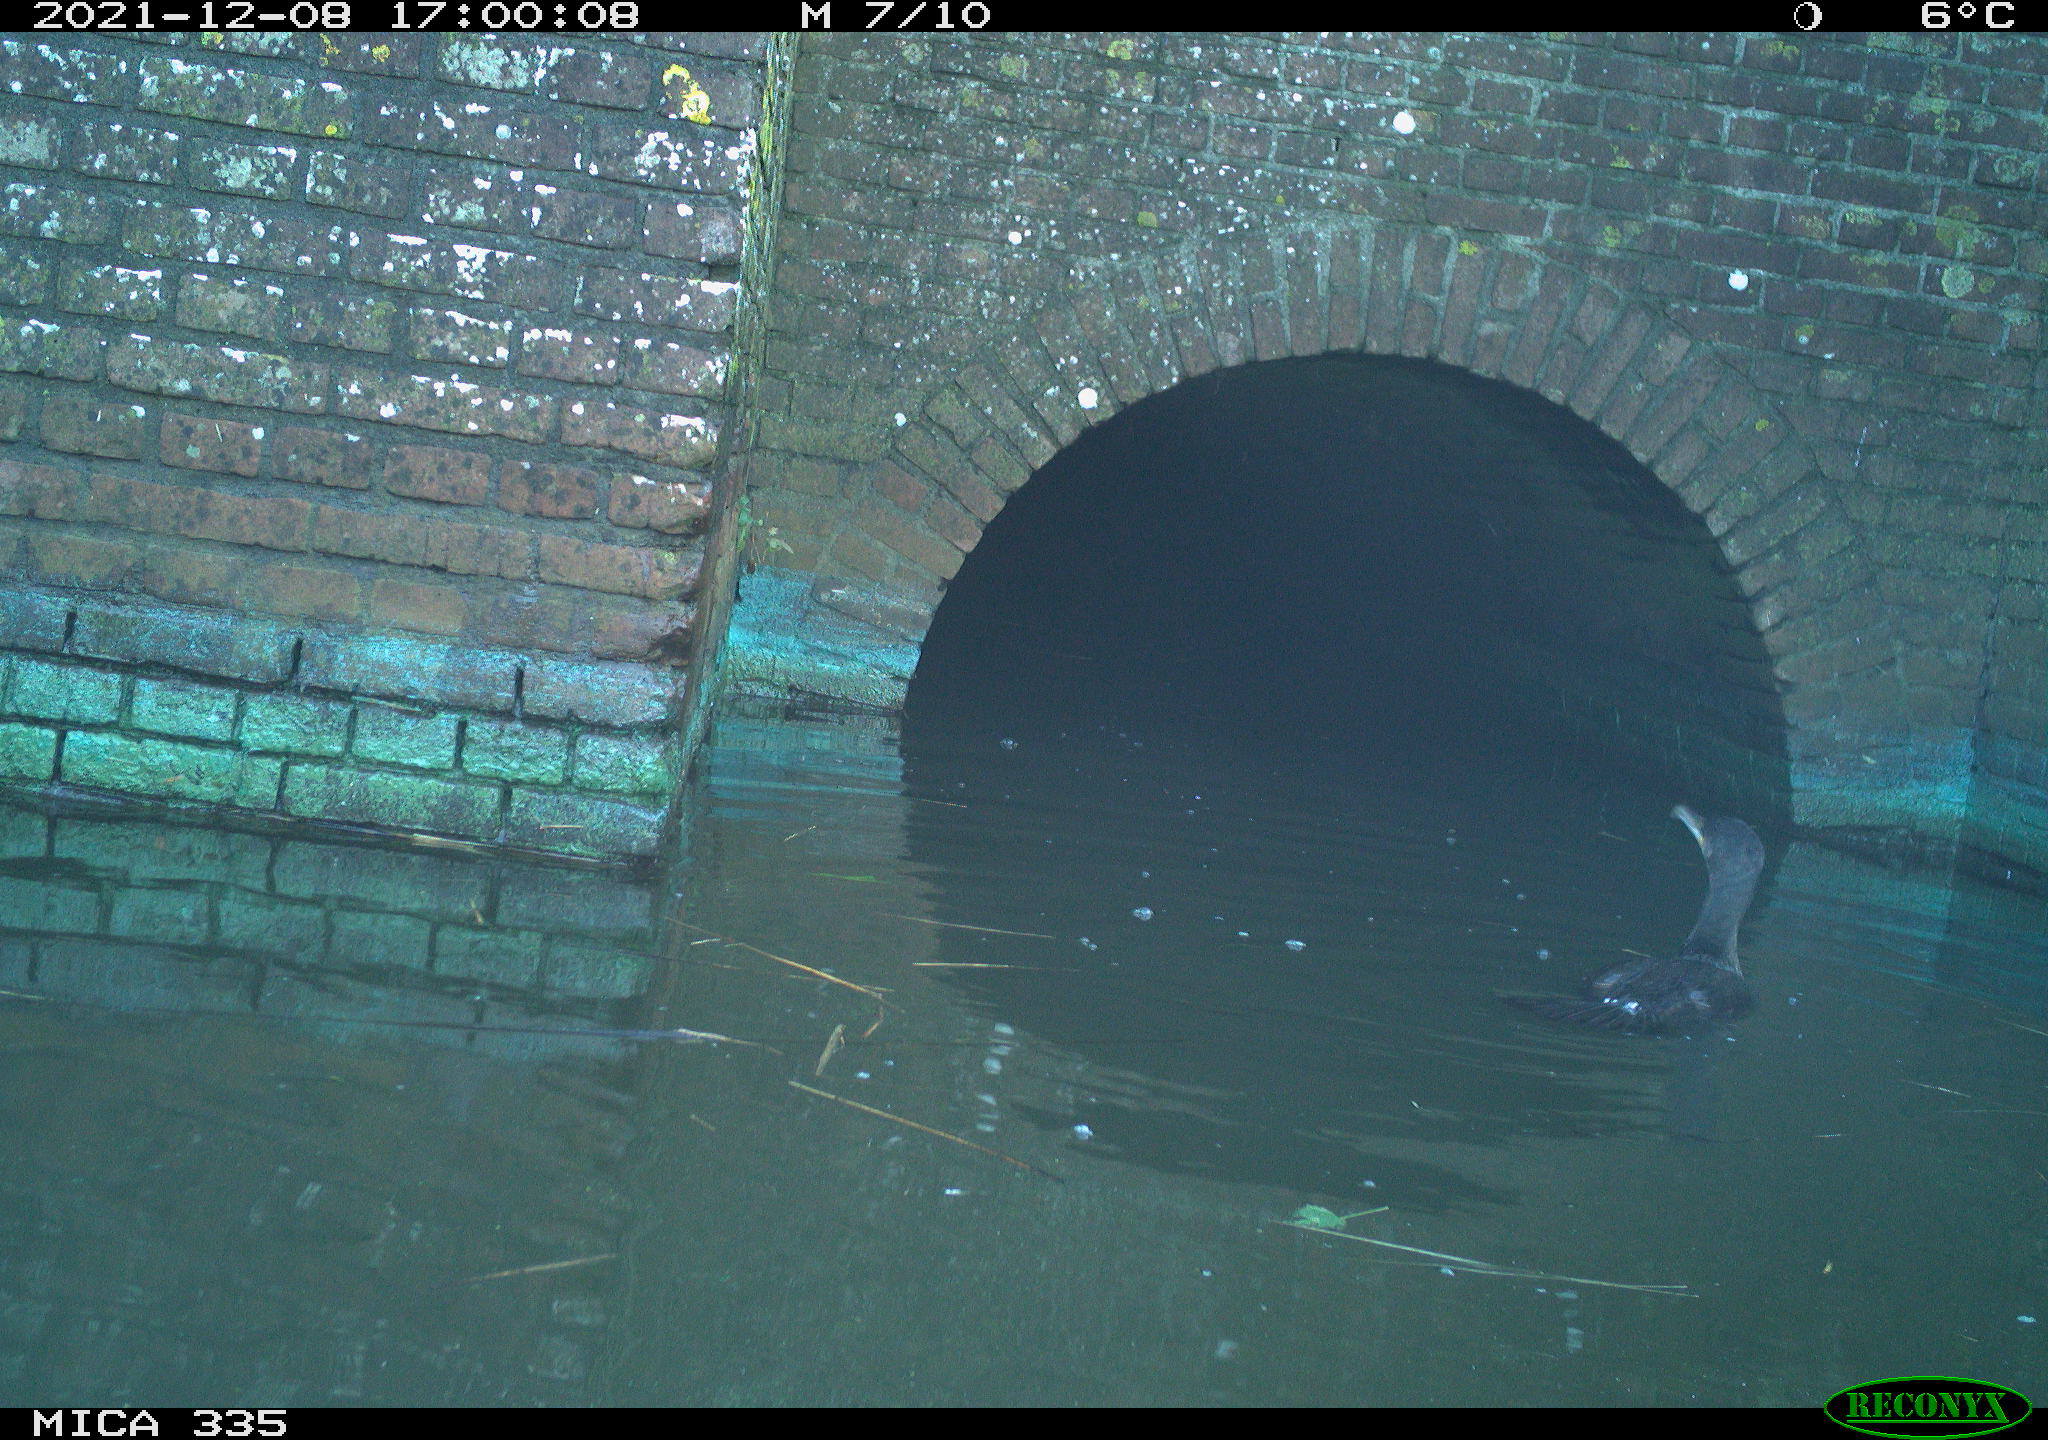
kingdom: Animalia
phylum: Chordata
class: Aves
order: Suliformes
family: Phalacrocoracidae
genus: Phalacrocorax
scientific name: Phalacrocorax carbo
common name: Great cormorant
